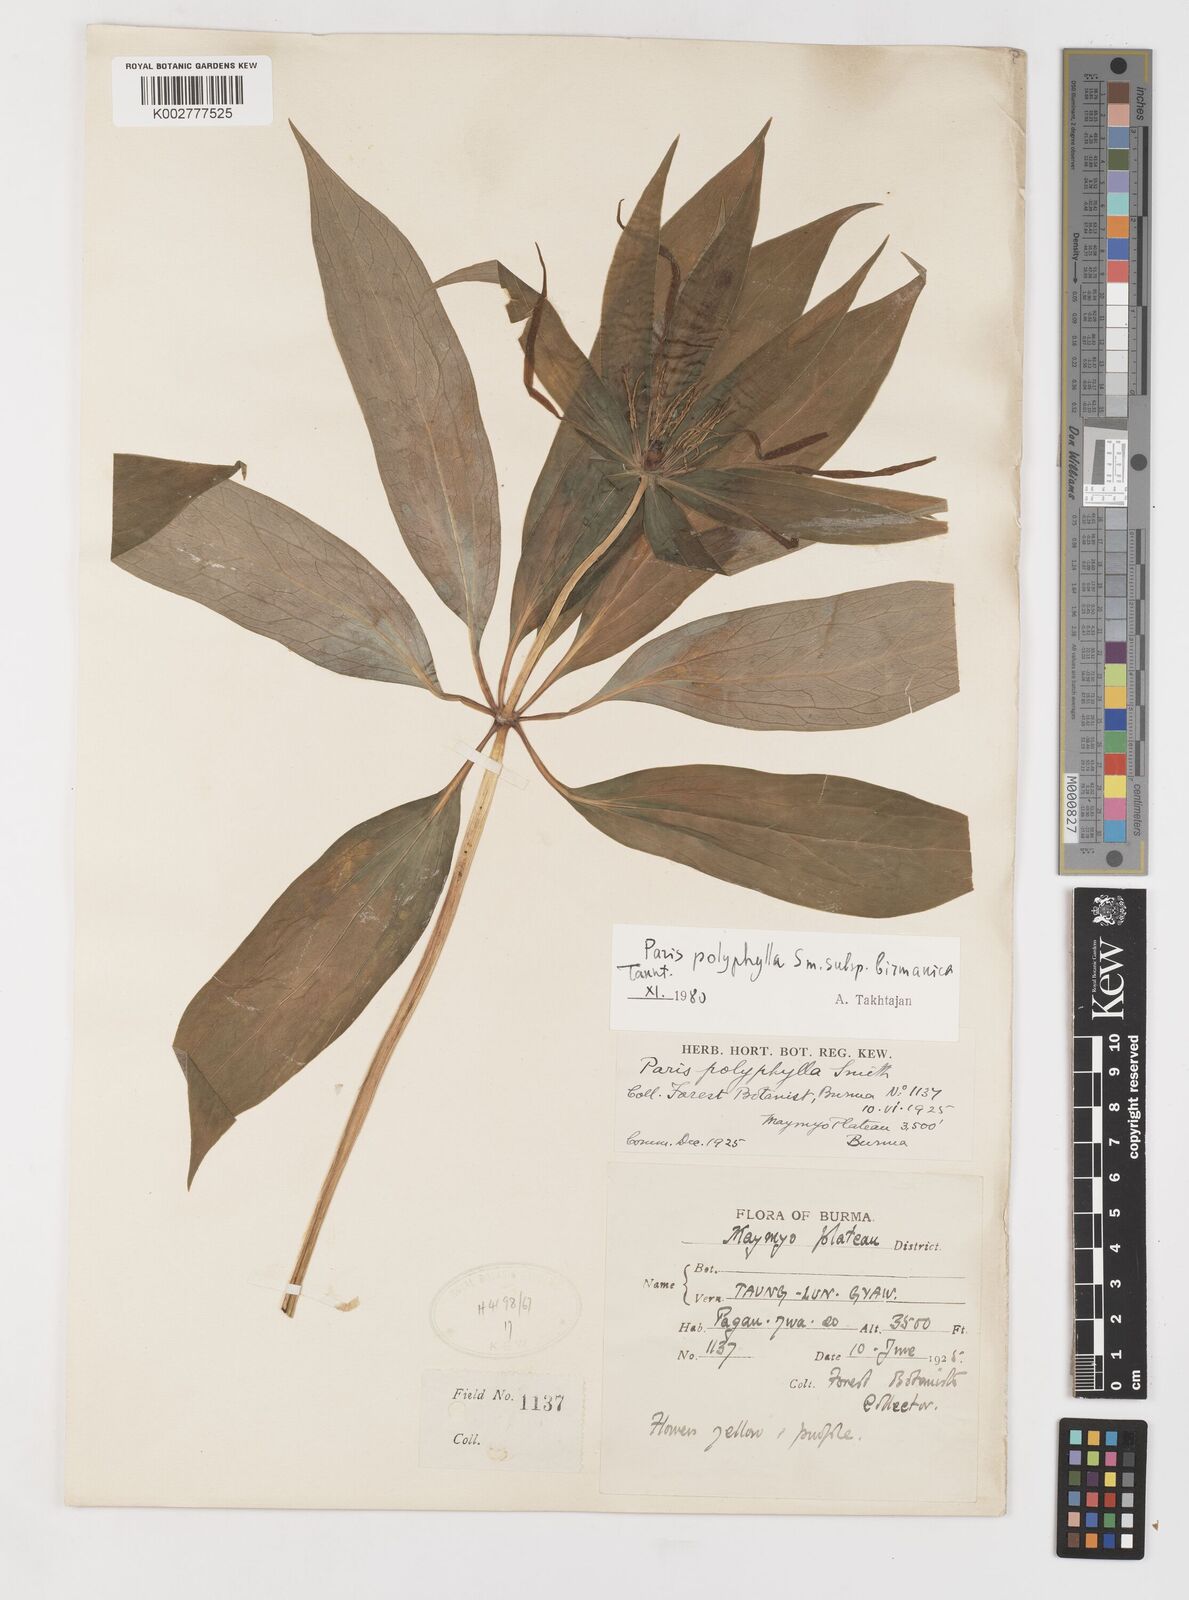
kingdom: Plantae
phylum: Tracheophyta
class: Liliopsida
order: Liliales
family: Melanthiaceae
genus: Paris
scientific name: Paris yunnanensis
